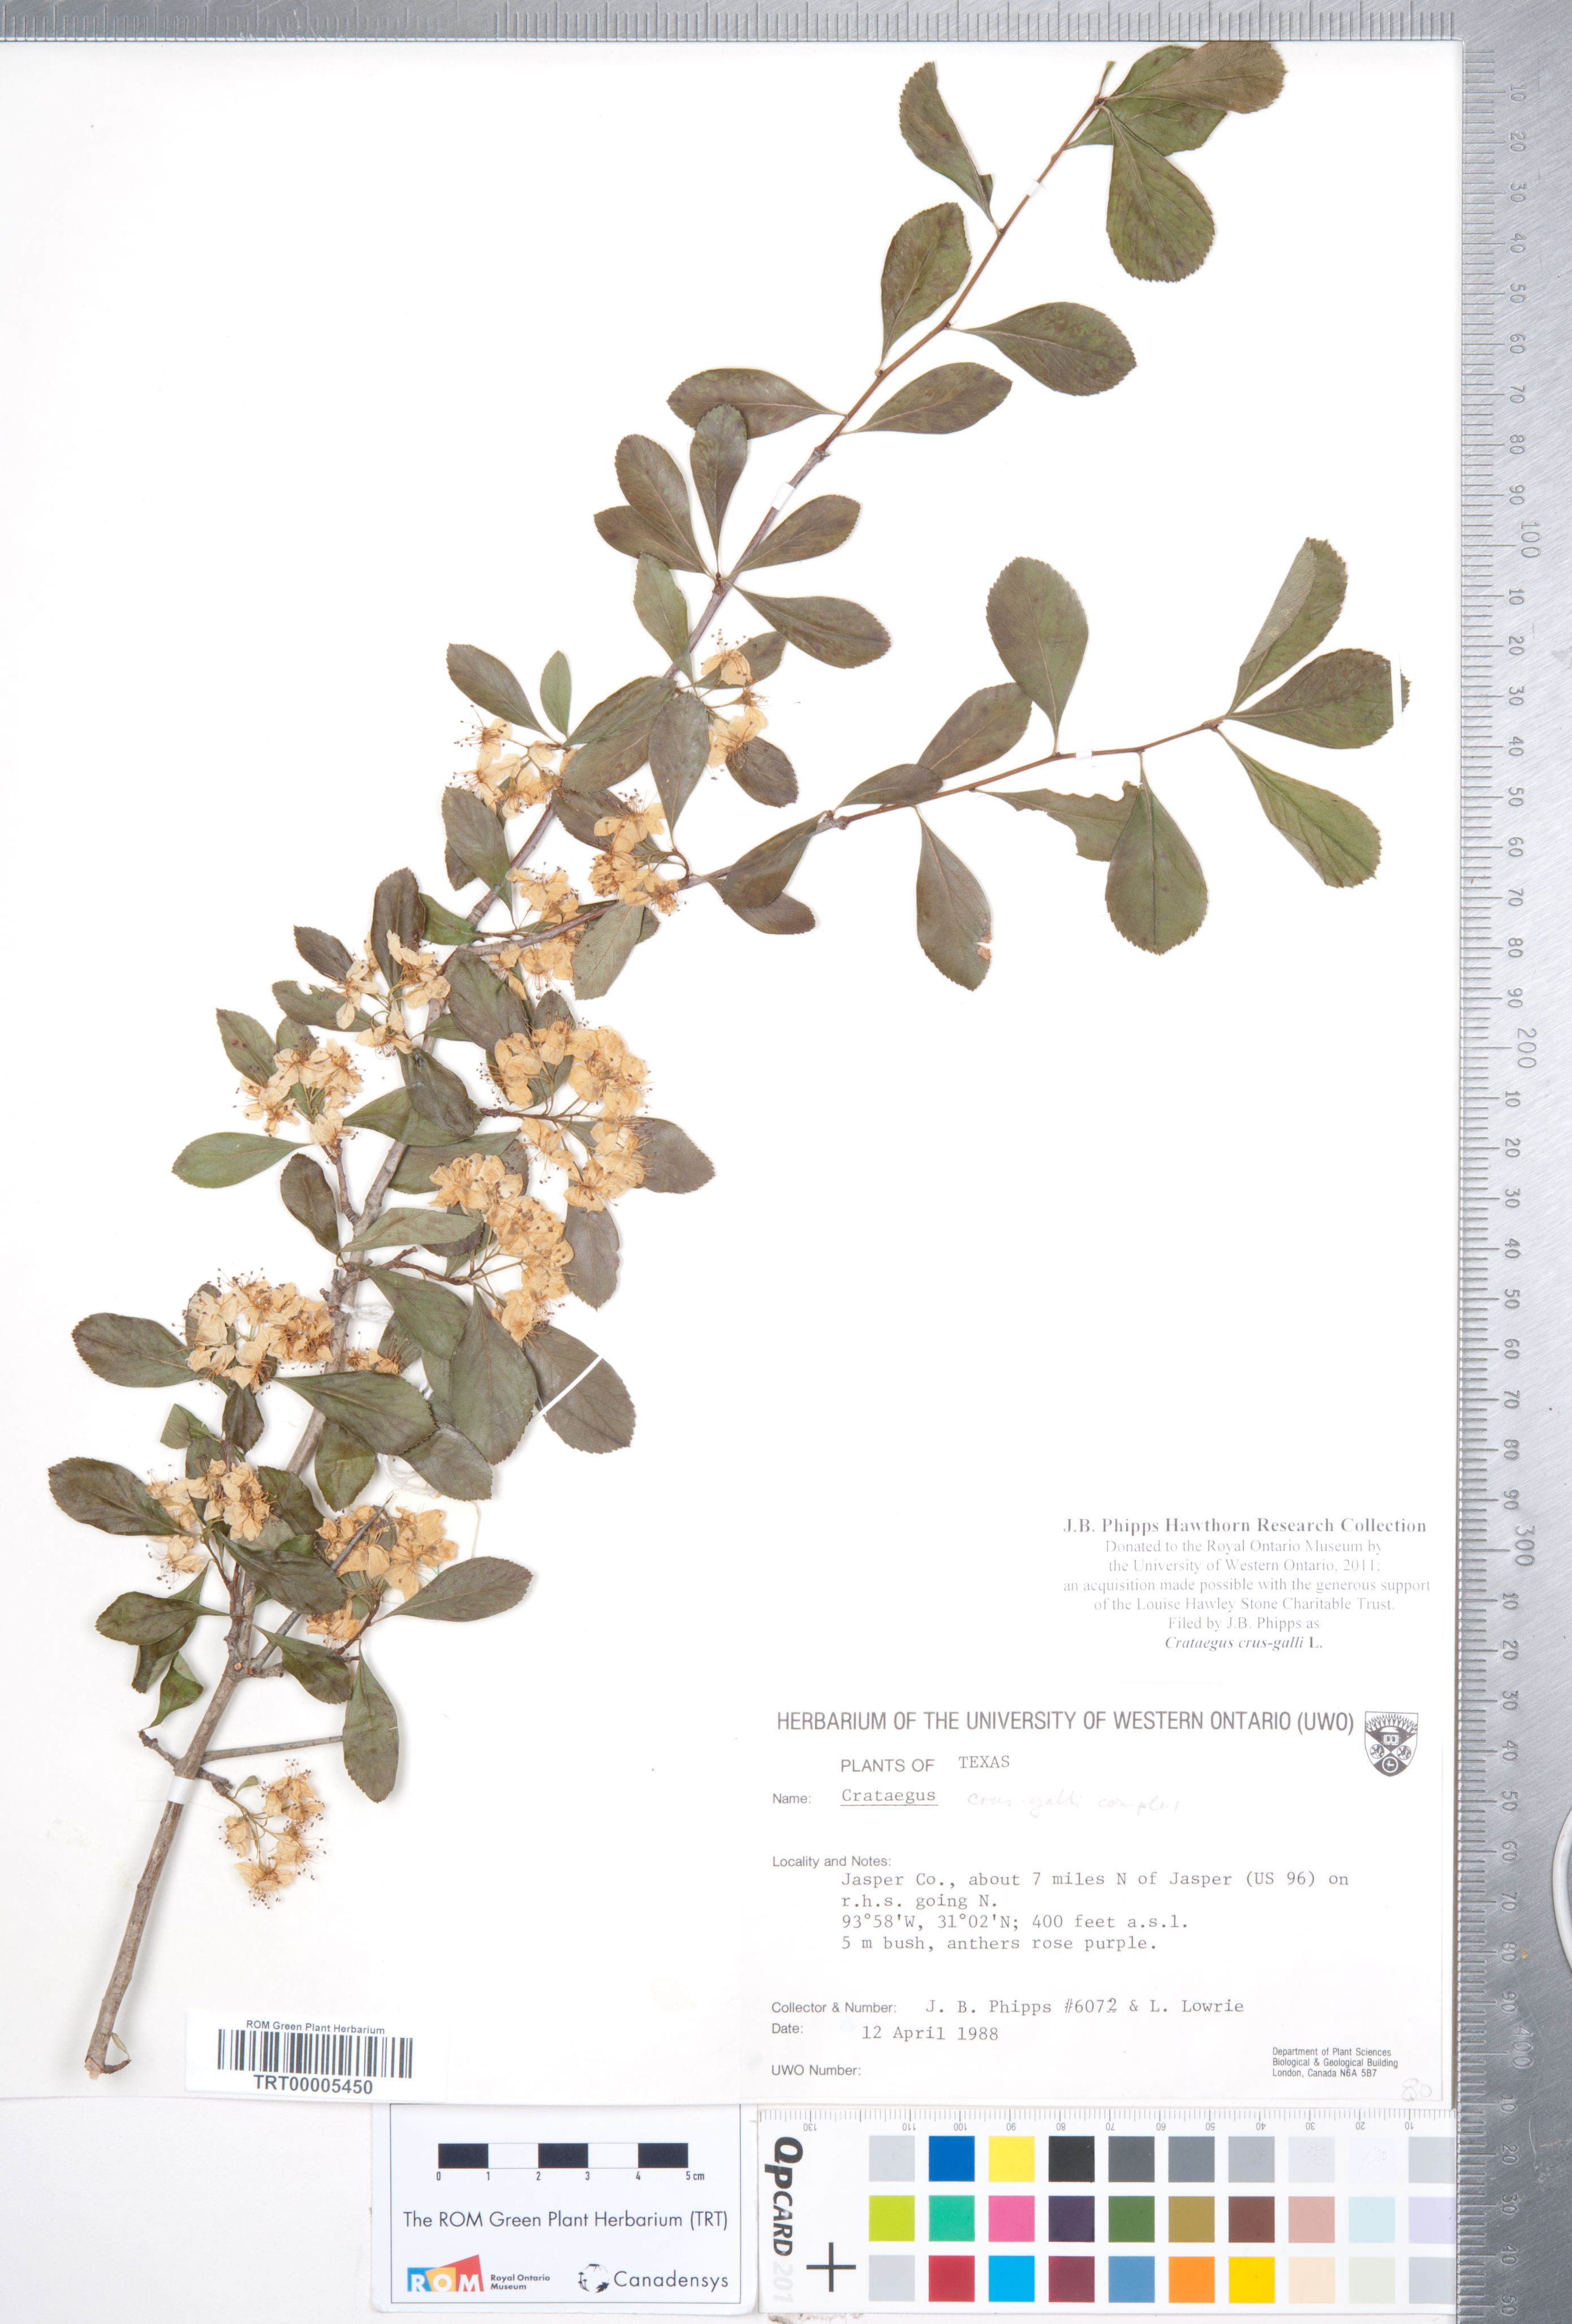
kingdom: Plantae
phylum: Tracheophyta
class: Magnoliopsida
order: Rosales
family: Rosaceae
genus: Crataegus
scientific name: Crataegus crus-galli
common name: Cockspurthorn
